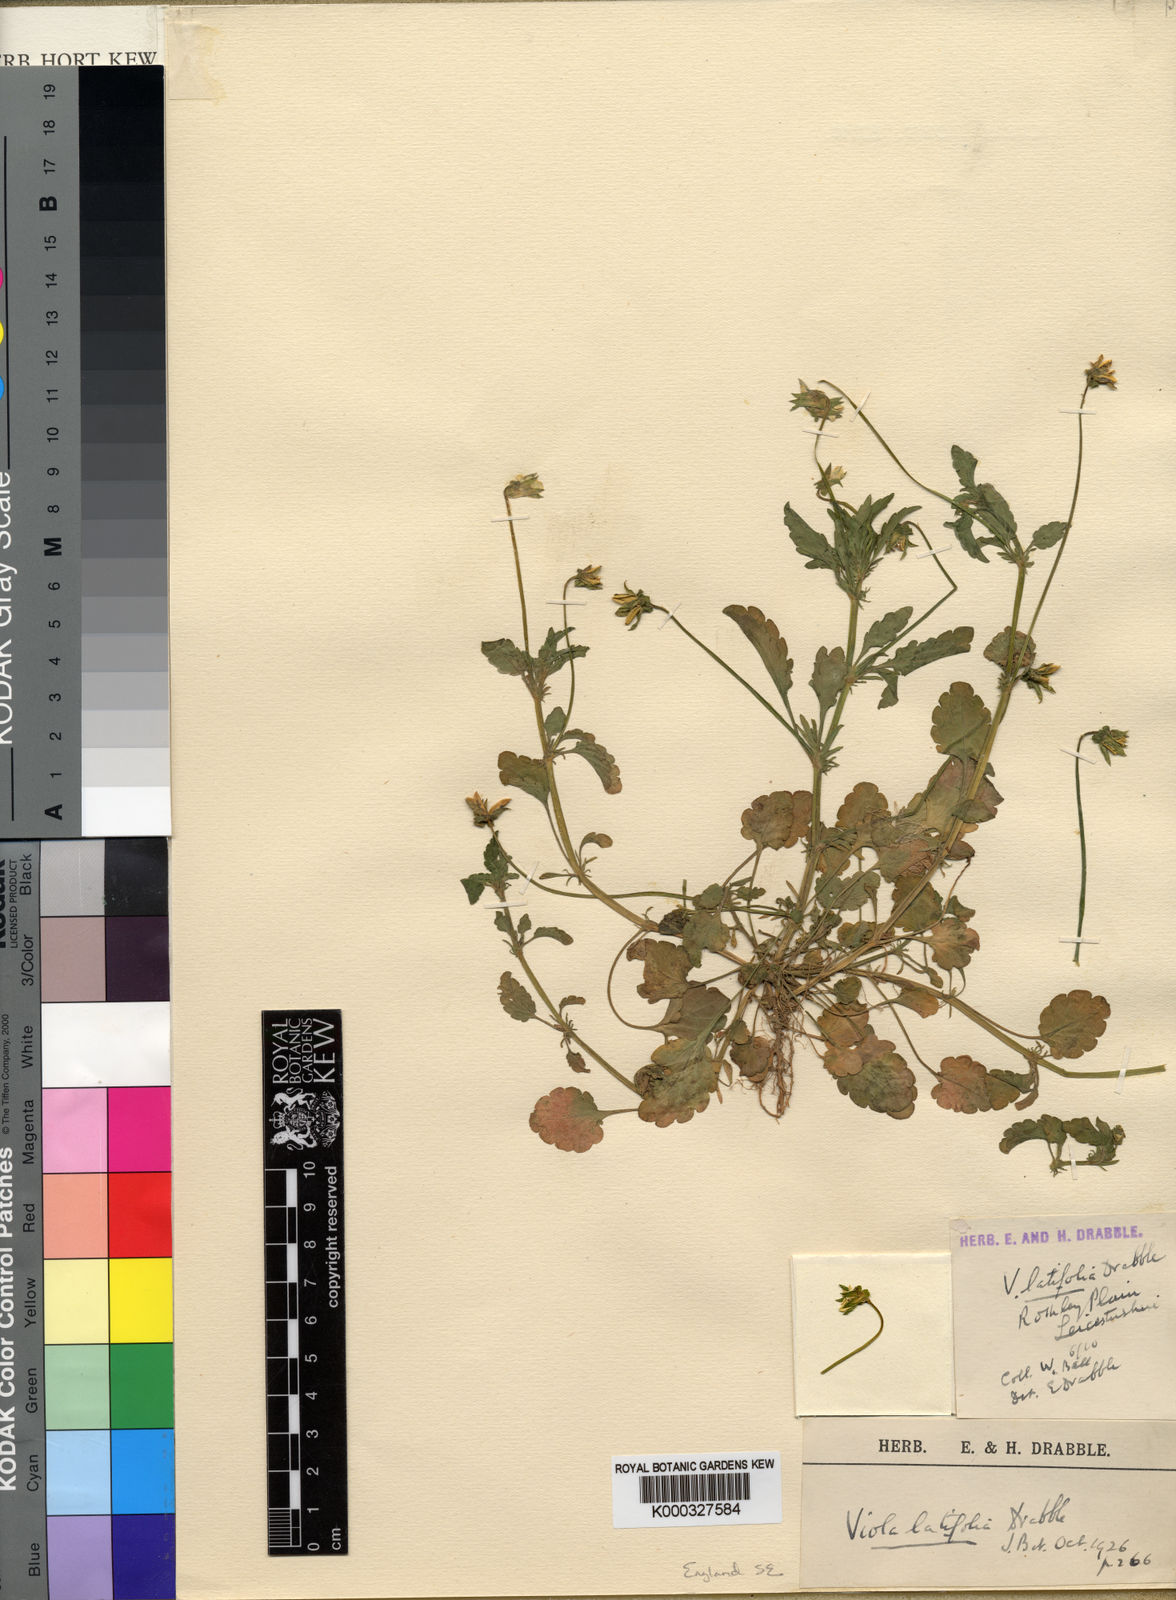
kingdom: Plantae
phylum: Tracheophyta
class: Magnoliopsida
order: Malpighiales
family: Violaceae
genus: Viola
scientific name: Viola arvensis
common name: Field pansy
